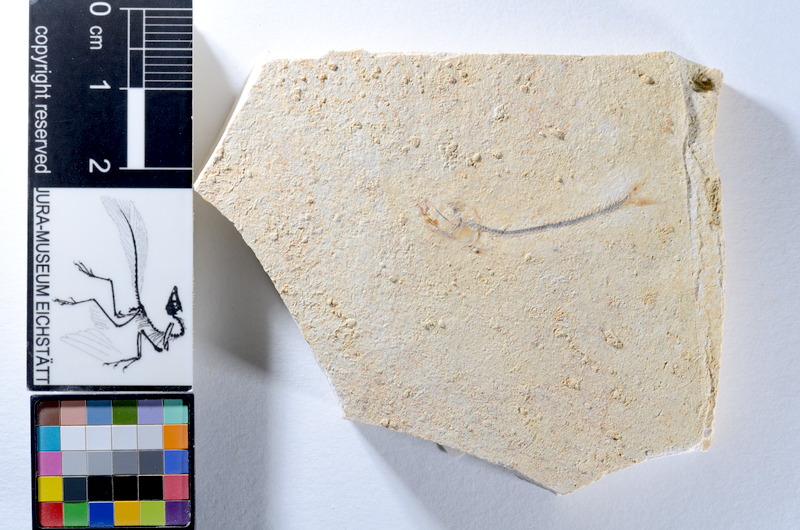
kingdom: Animalia
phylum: Chordata
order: Salmoniformes
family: Orthogonikleithridae
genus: Orthogonikleithrus
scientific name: Orthogonikleithrus hoelli
